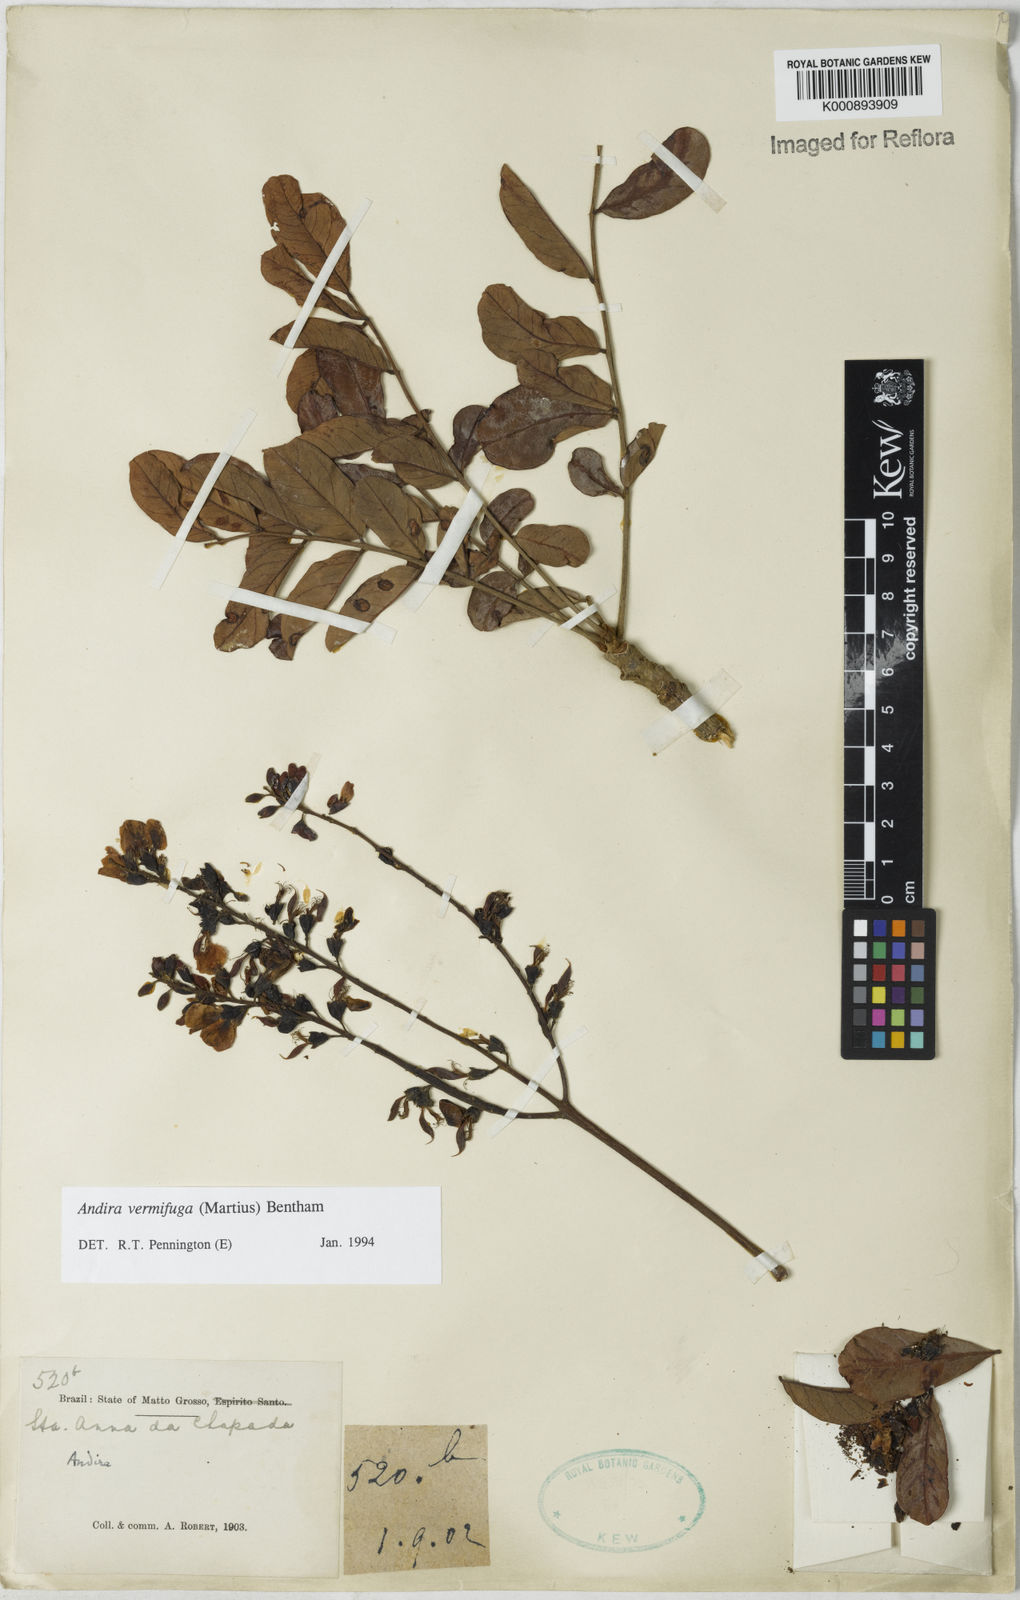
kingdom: Plantae
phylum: Tracheophyta
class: Magnoliopsida
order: Fabales
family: Fabaceae
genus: Andira
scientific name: Andira vermifuga
